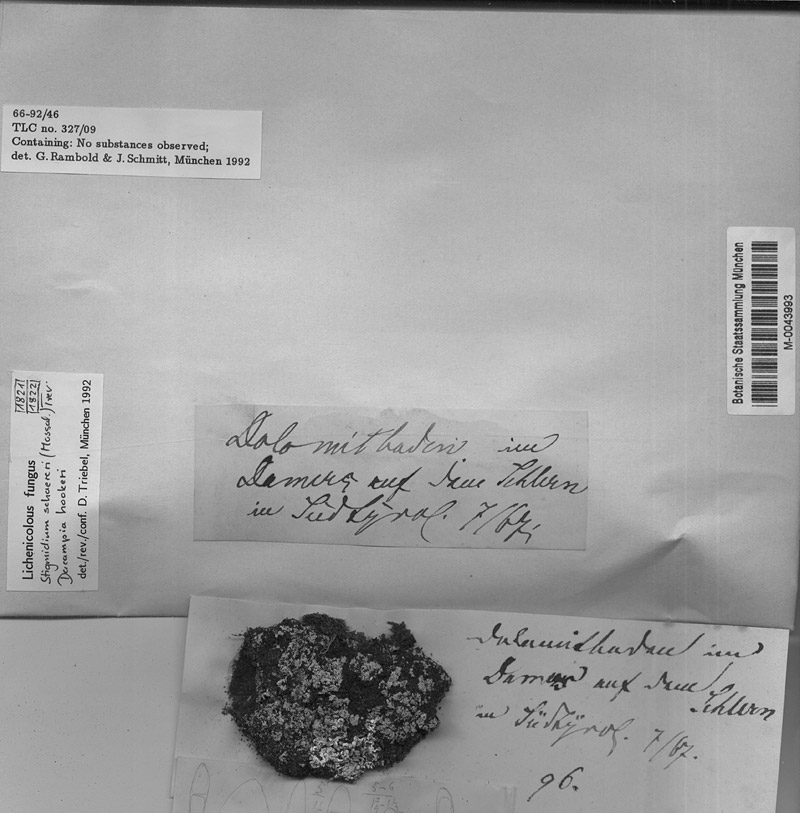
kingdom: Fungi
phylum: Ascomycota
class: Dothideomycetes
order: Pleosporales
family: Dacampiaceae
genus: Dacampia
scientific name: Dacampia hookeri
